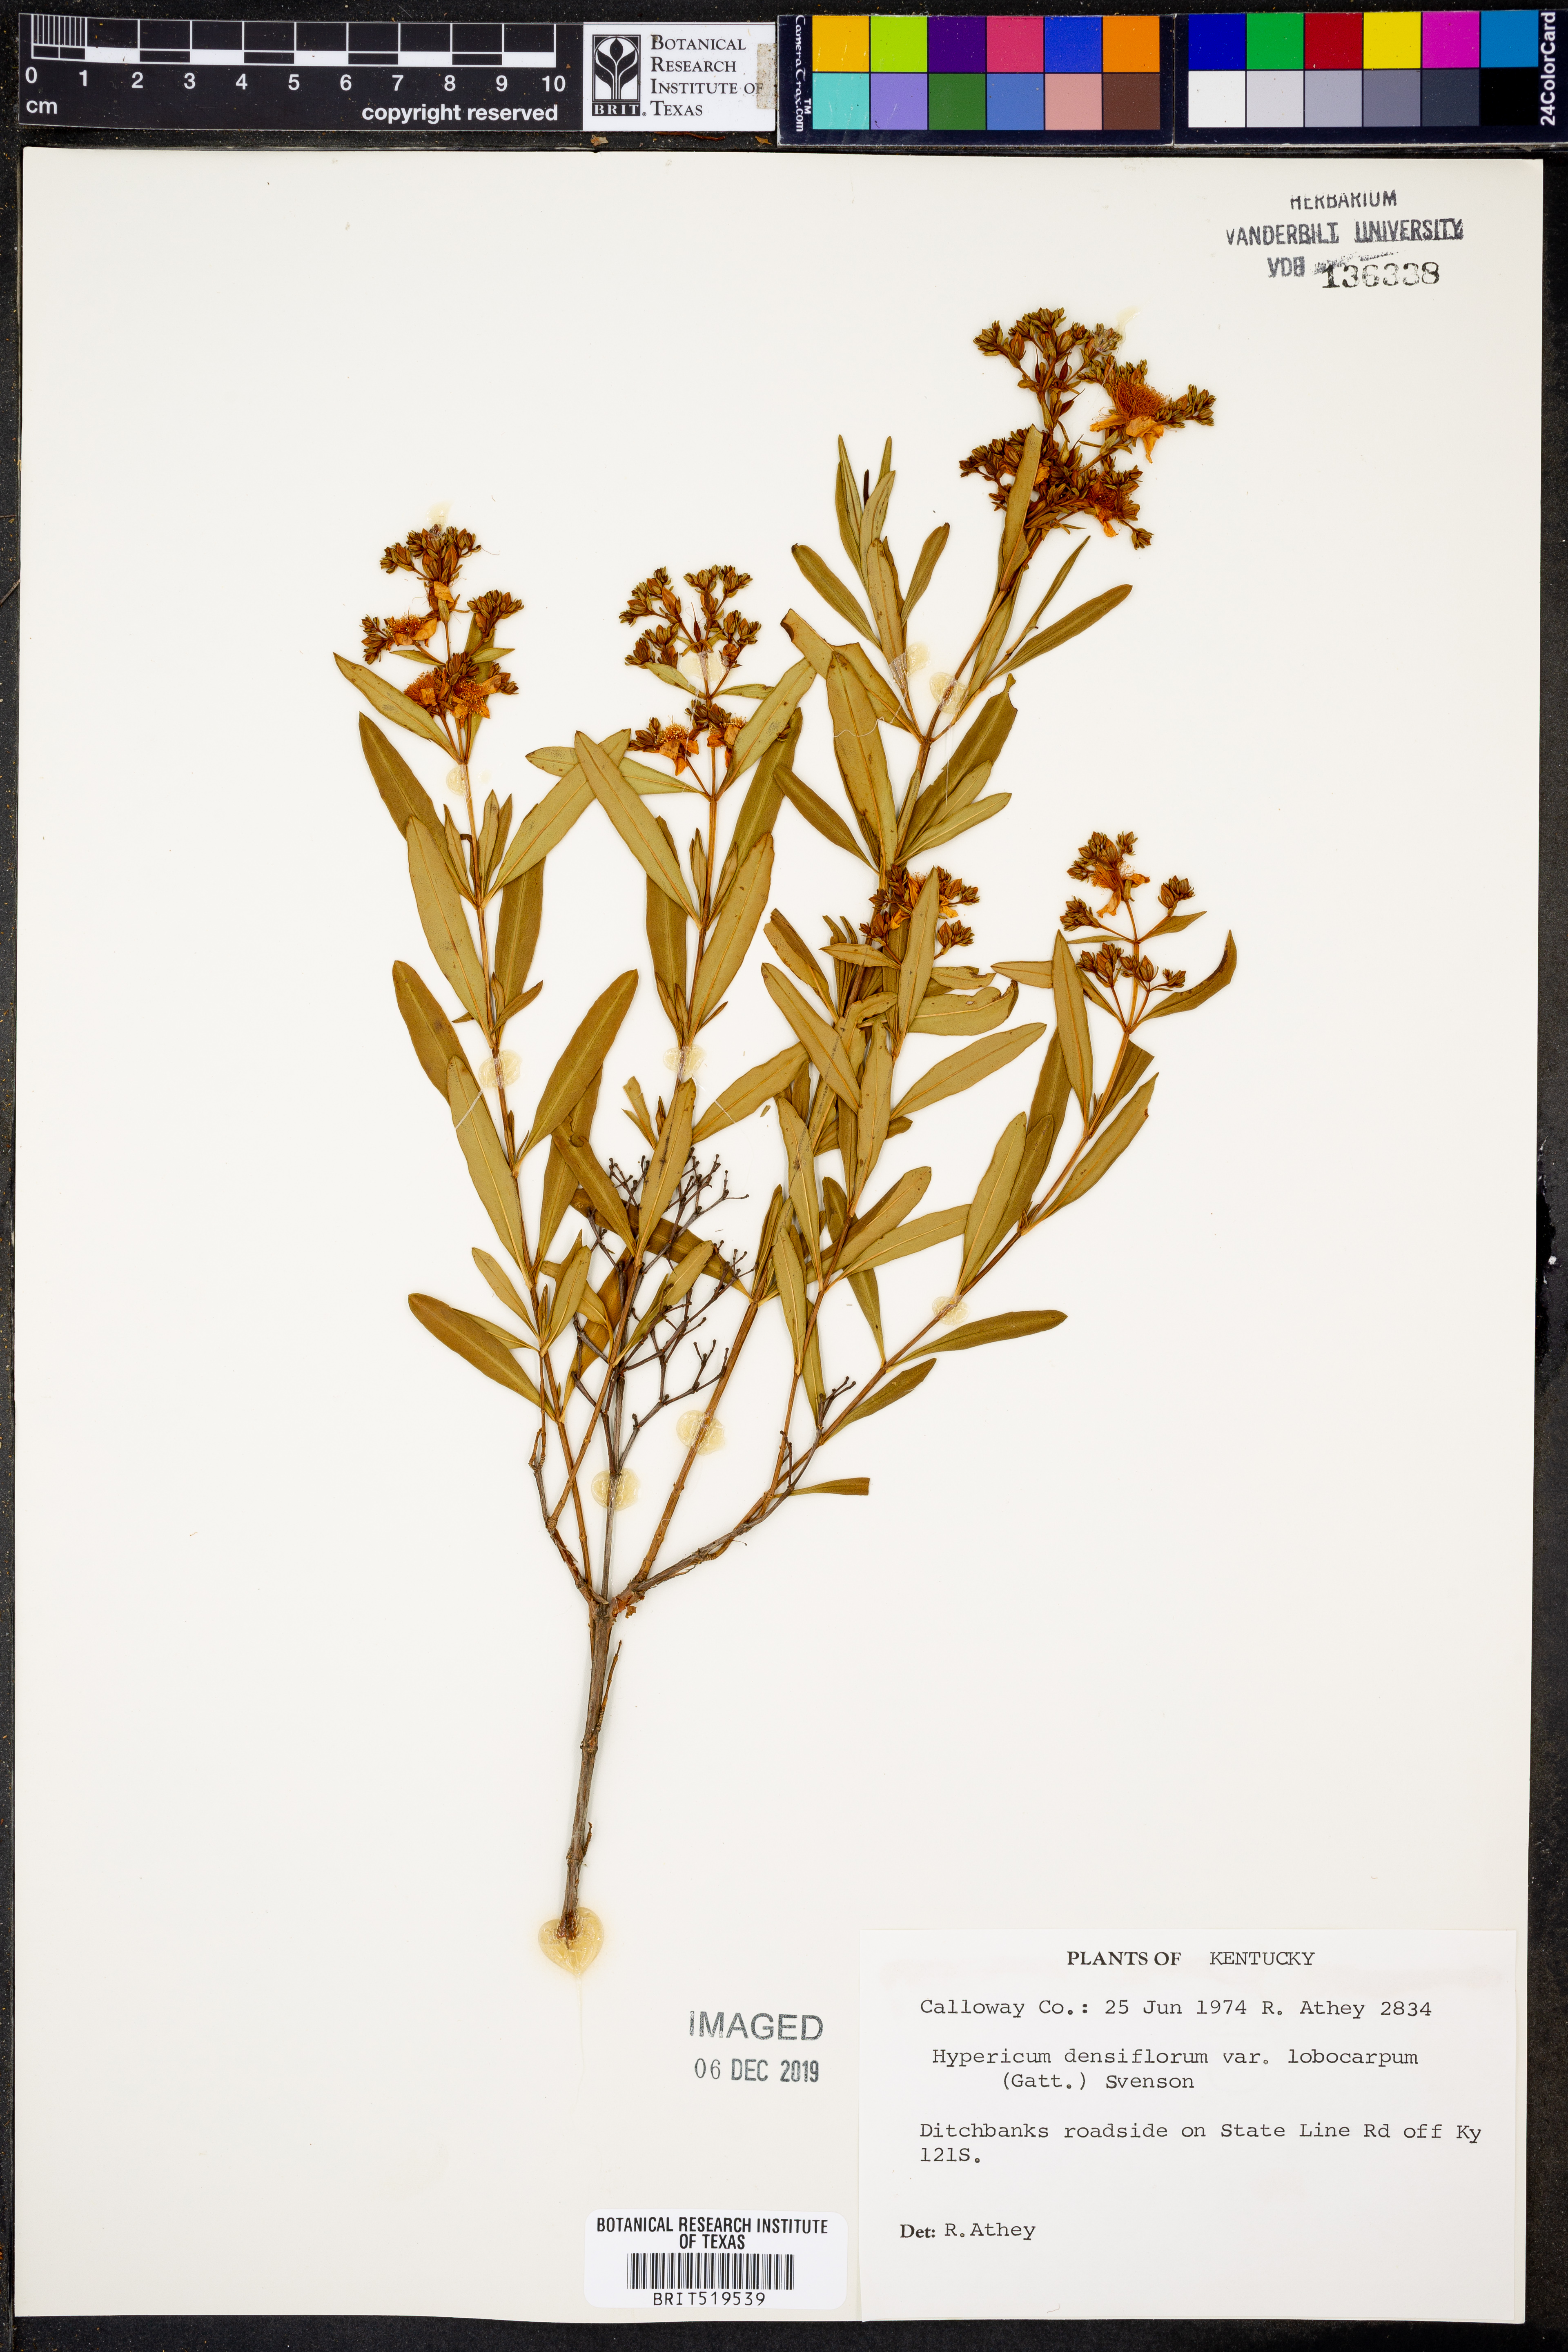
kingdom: Plantae
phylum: Tracheophyta
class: Magnoliopsida
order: Malpighiales
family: Hypericaceae
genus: Hypericum
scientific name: Hypericum lobocarpum
